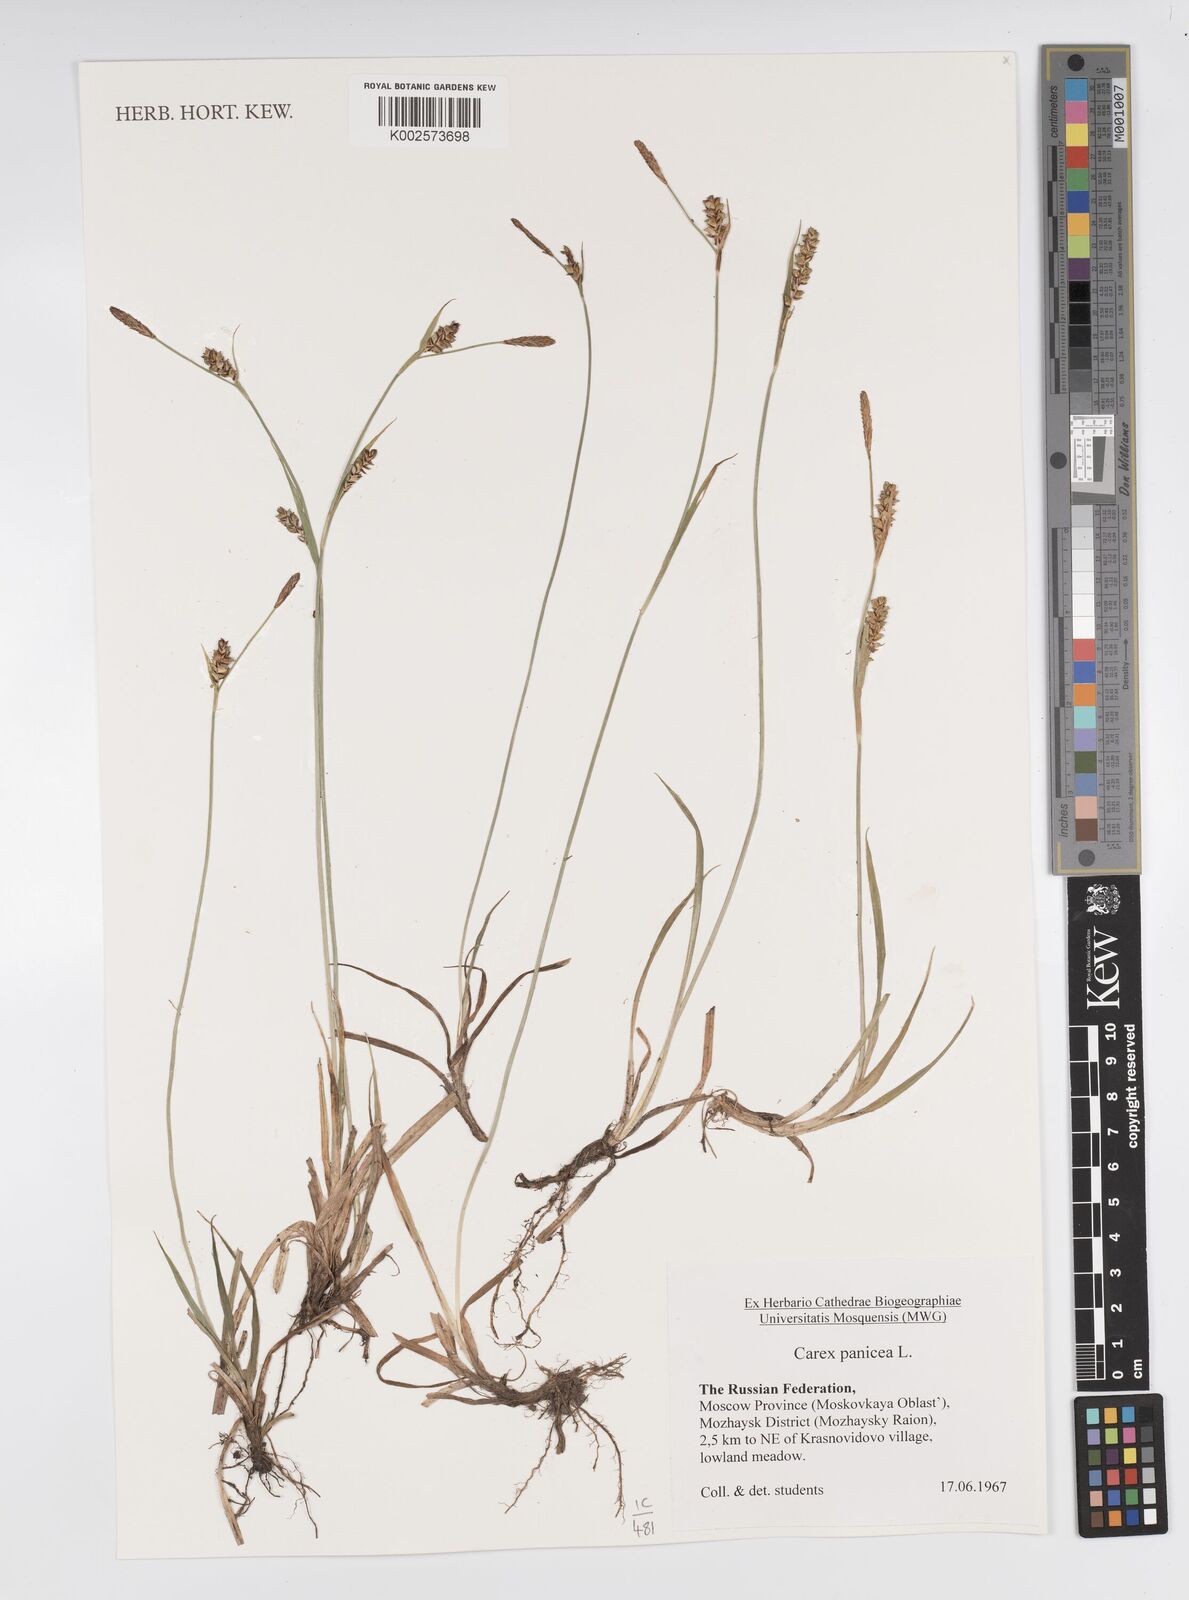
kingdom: Plantae
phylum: Tracheophyta
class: Liliopsida
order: Poales
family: Cyperaceae
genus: Carex
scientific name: Carex panicea
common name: Carnation sedge
